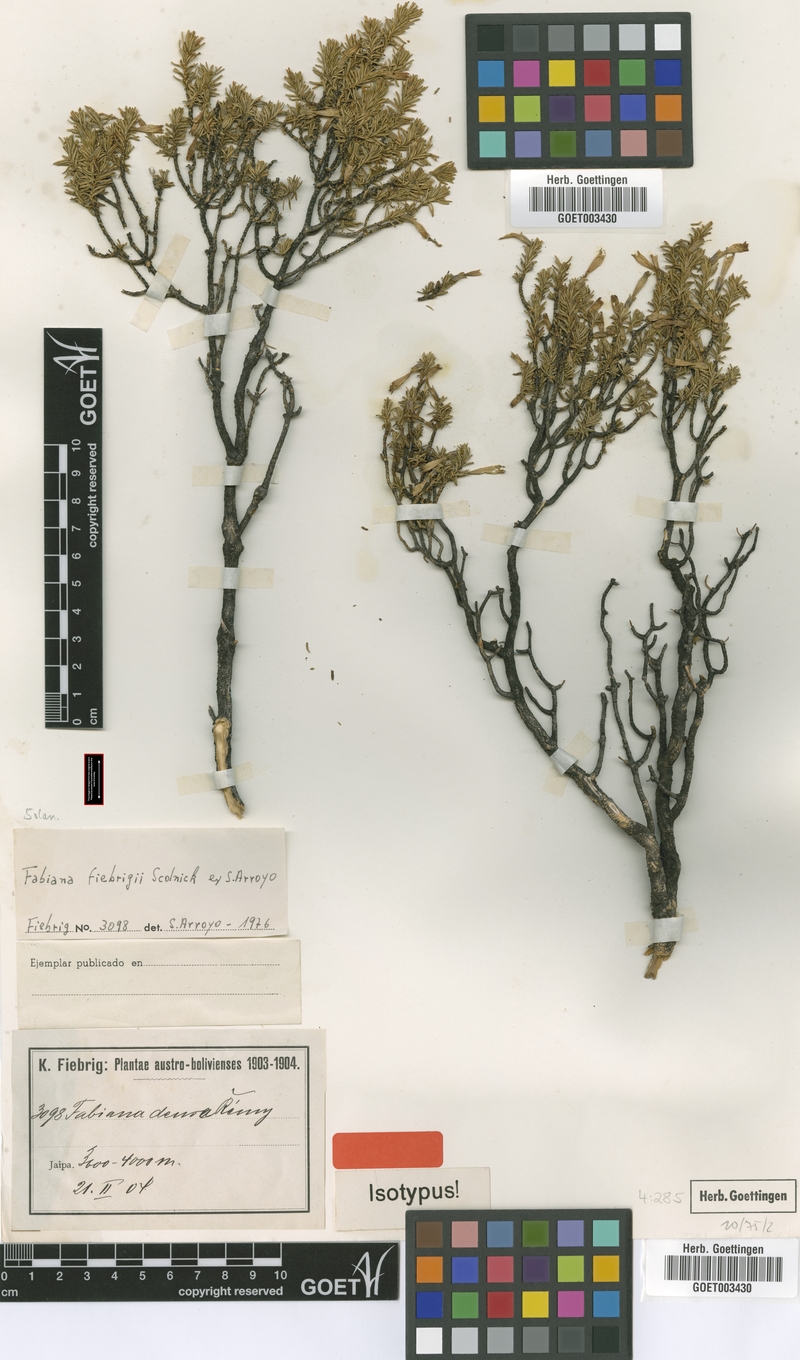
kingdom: Plantae
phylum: Tracheophyta
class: Magnoliopsida
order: Solanales
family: Solanaceae
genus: Fabiana
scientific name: Fabiana fiebrigii
